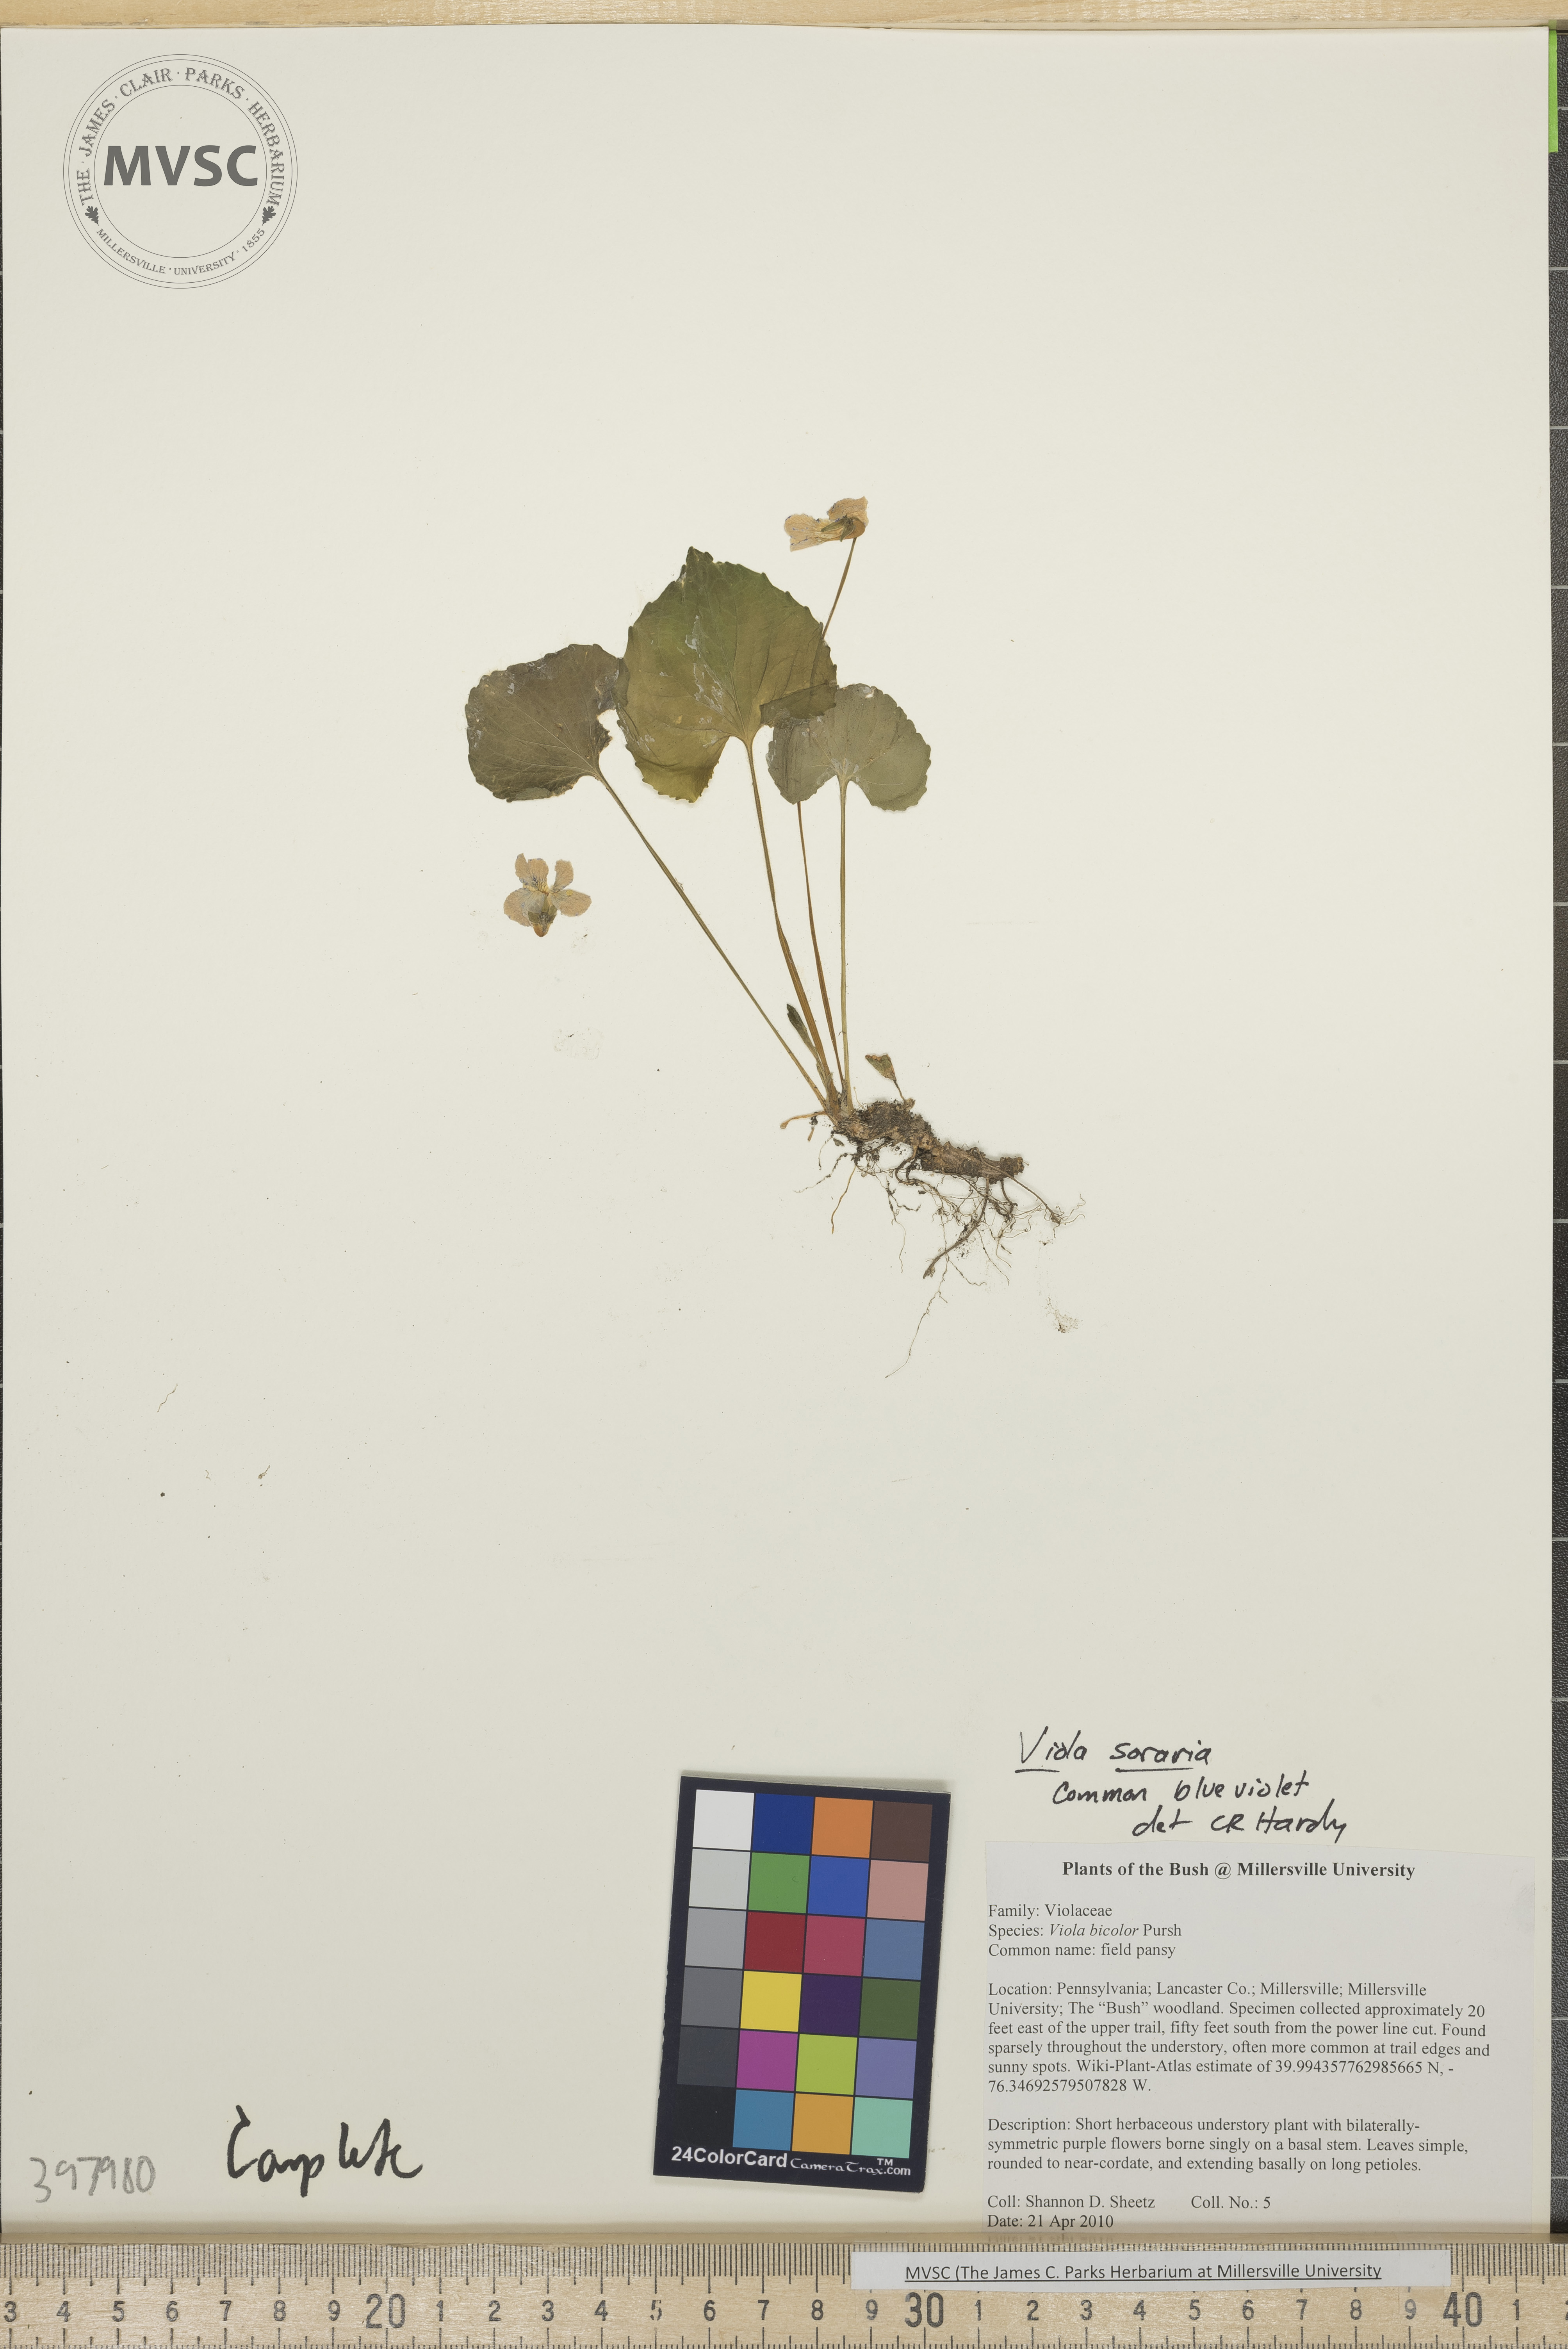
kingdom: Plantae
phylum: Tracheophyta
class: Magnoliopsida
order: Malpighiales
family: Violaceae
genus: Viola
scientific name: Viola sororia
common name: Common blue violet
